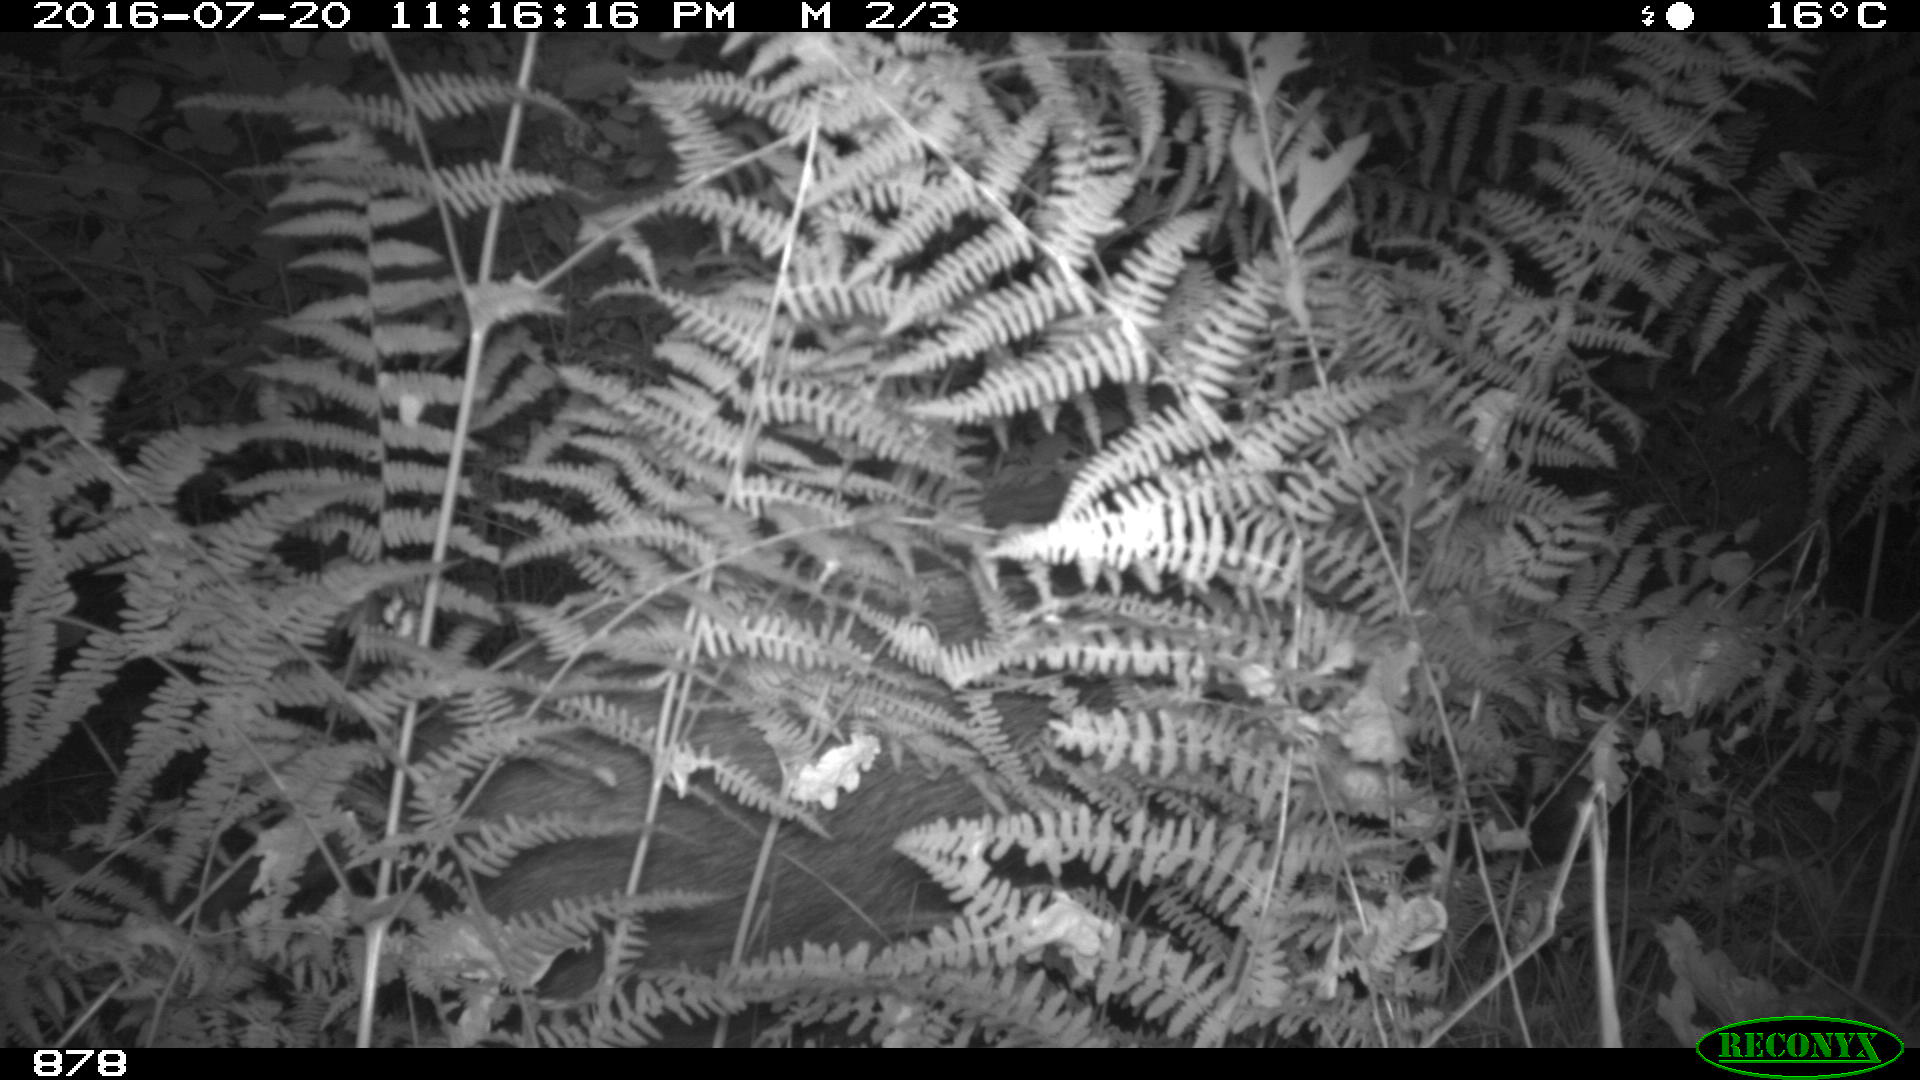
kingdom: Animalia
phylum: Chordata
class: Mammalia
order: Artiodactyla
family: Suidae
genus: Sus
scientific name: Sus scrofa
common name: Wild boar
